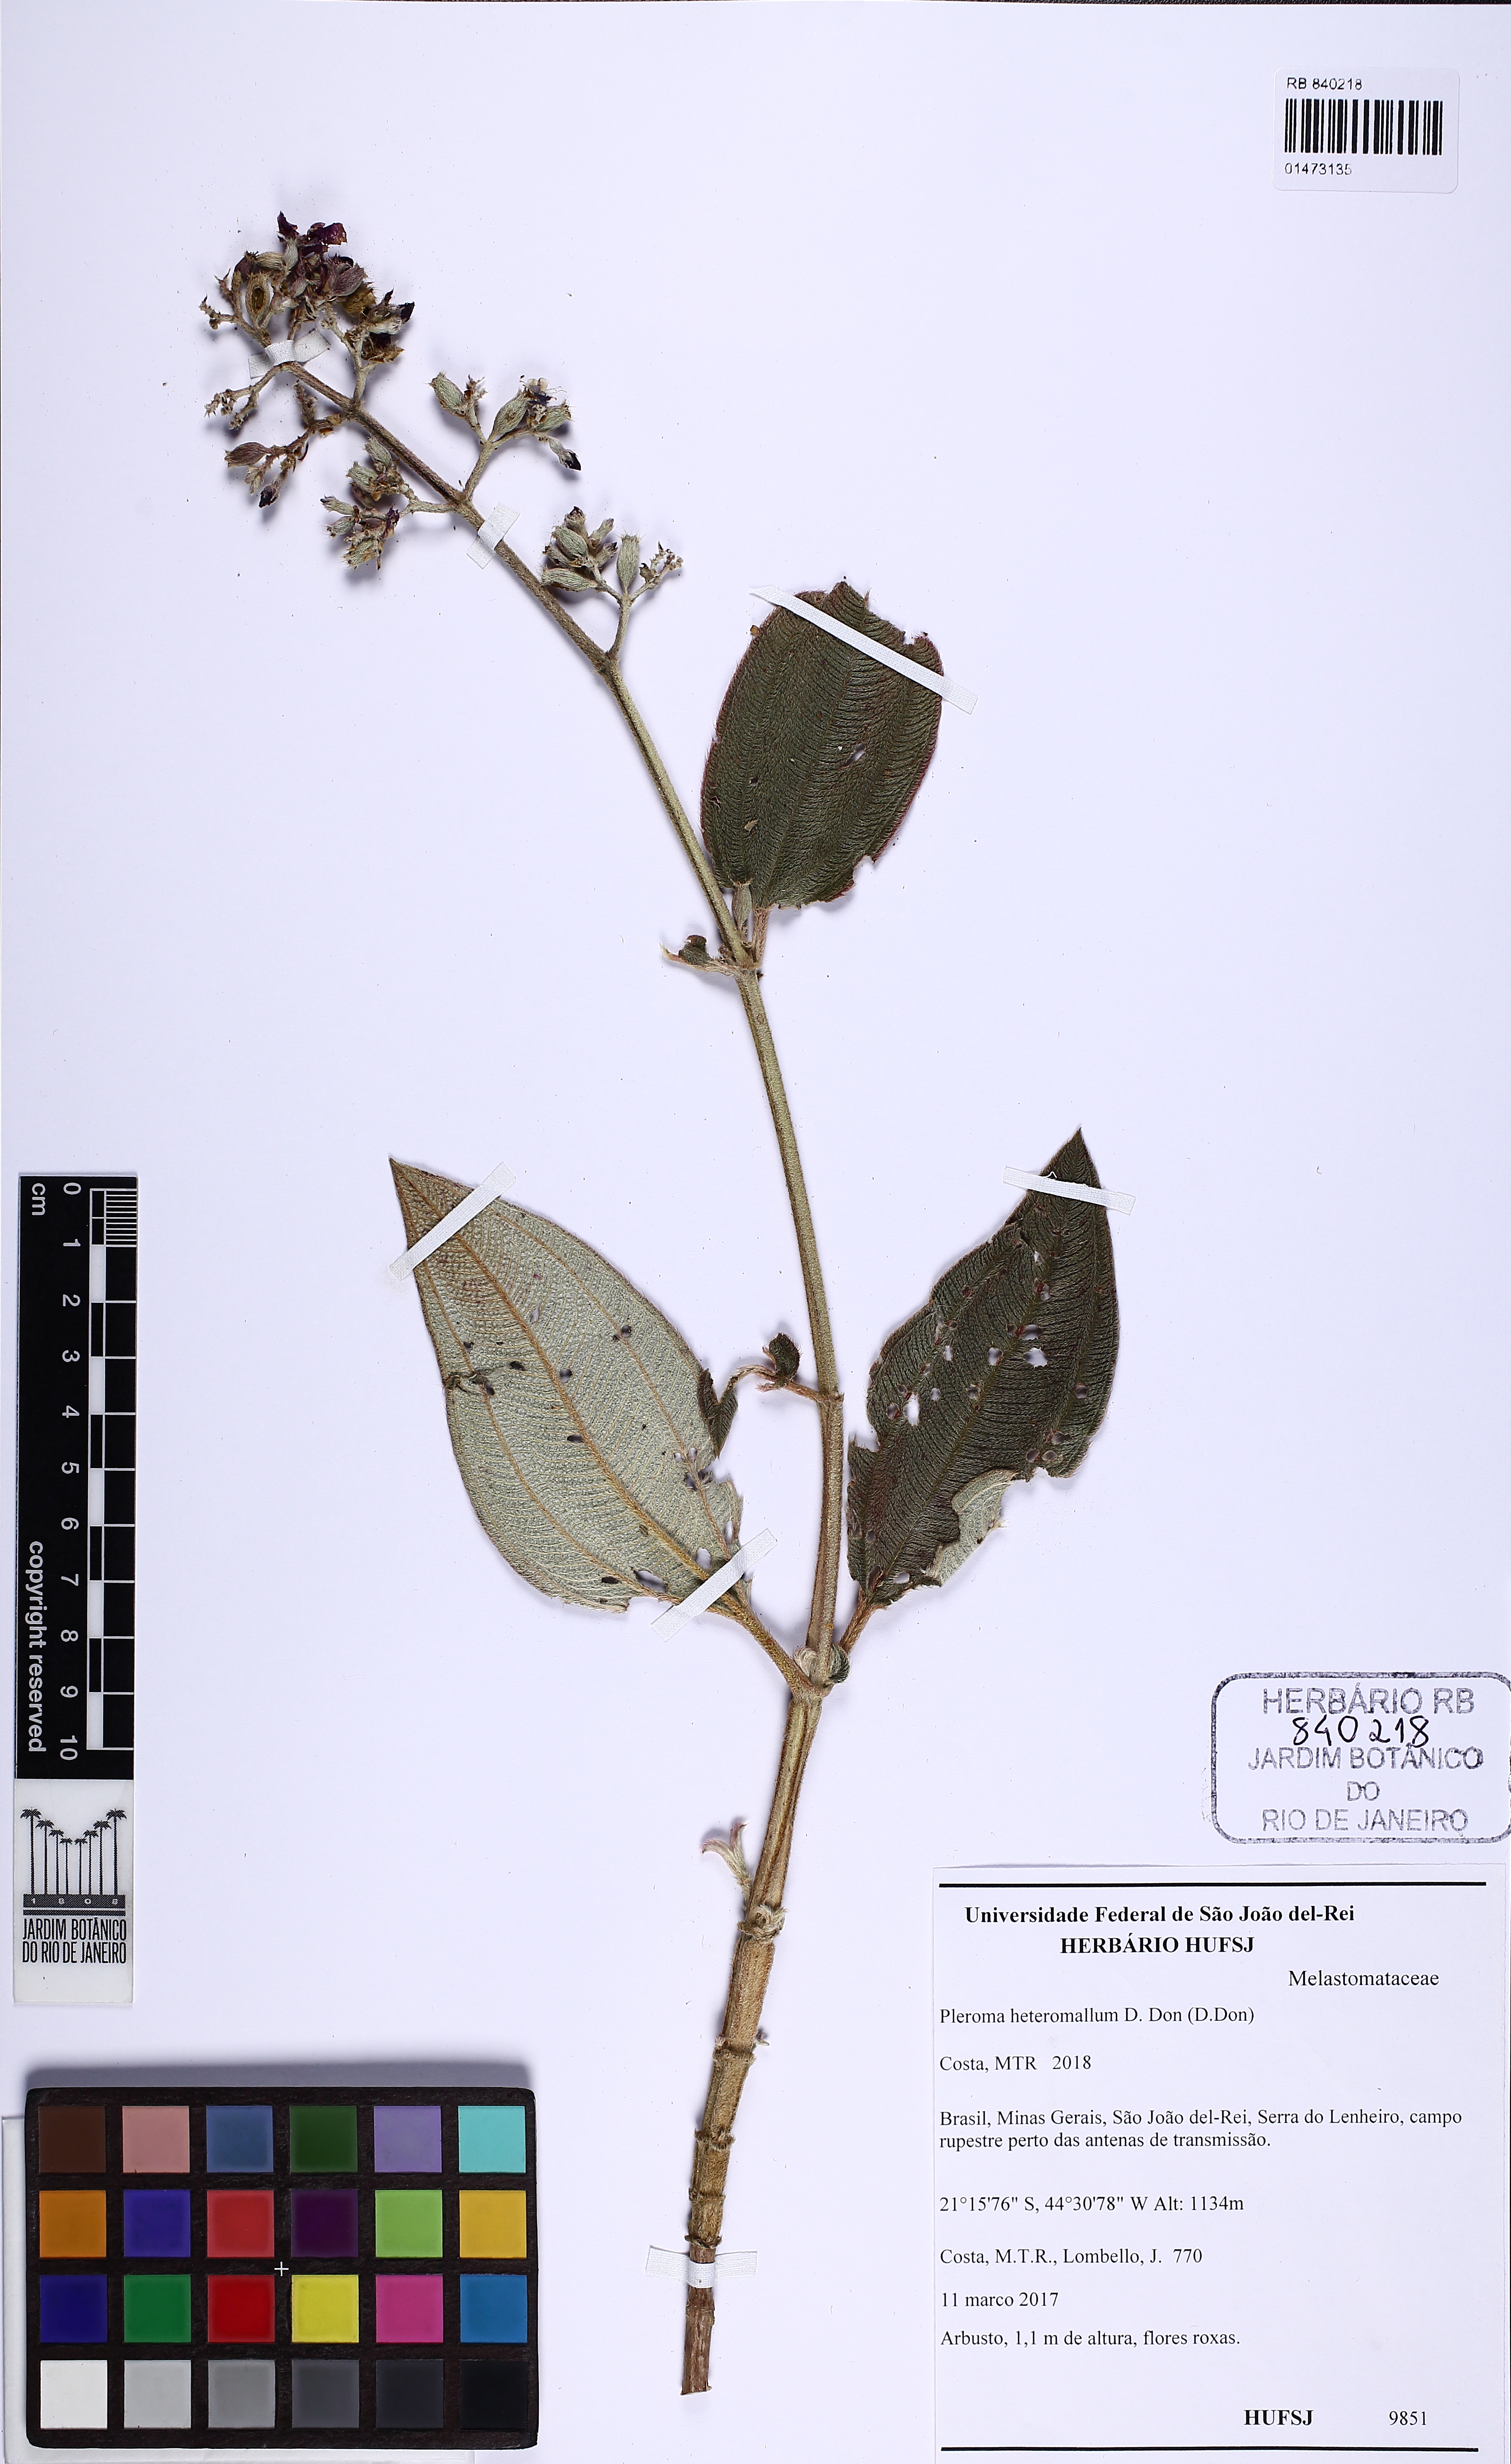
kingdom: Plantae
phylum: Tracheophyta
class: Magnoliopsida
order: Myrtales
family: Melastomataceae
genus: Pleroma
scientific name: Pleroma heteromallum
